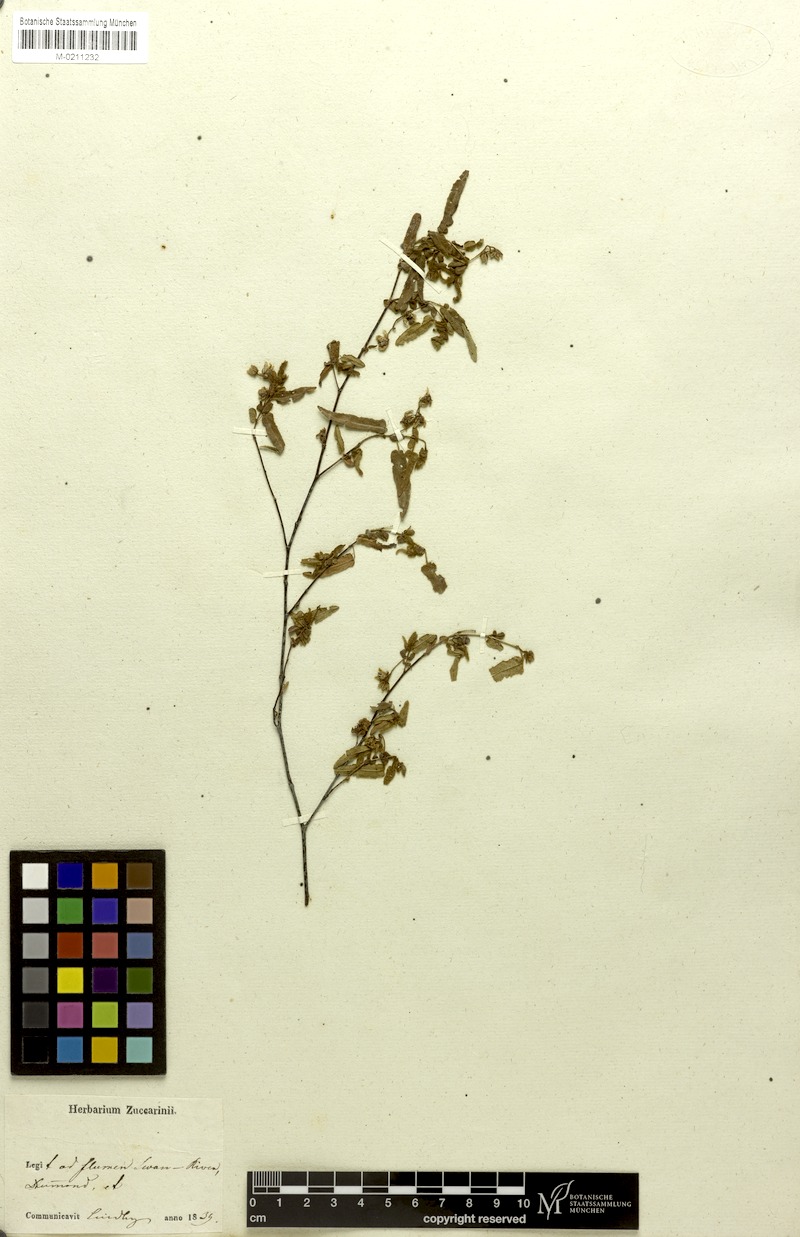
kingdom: Plantae
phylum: Tracheophyta
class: Magnoliopsida
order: Malvales
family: Malvaceae
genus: Thomasia
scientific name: Thomasia pauciflora
